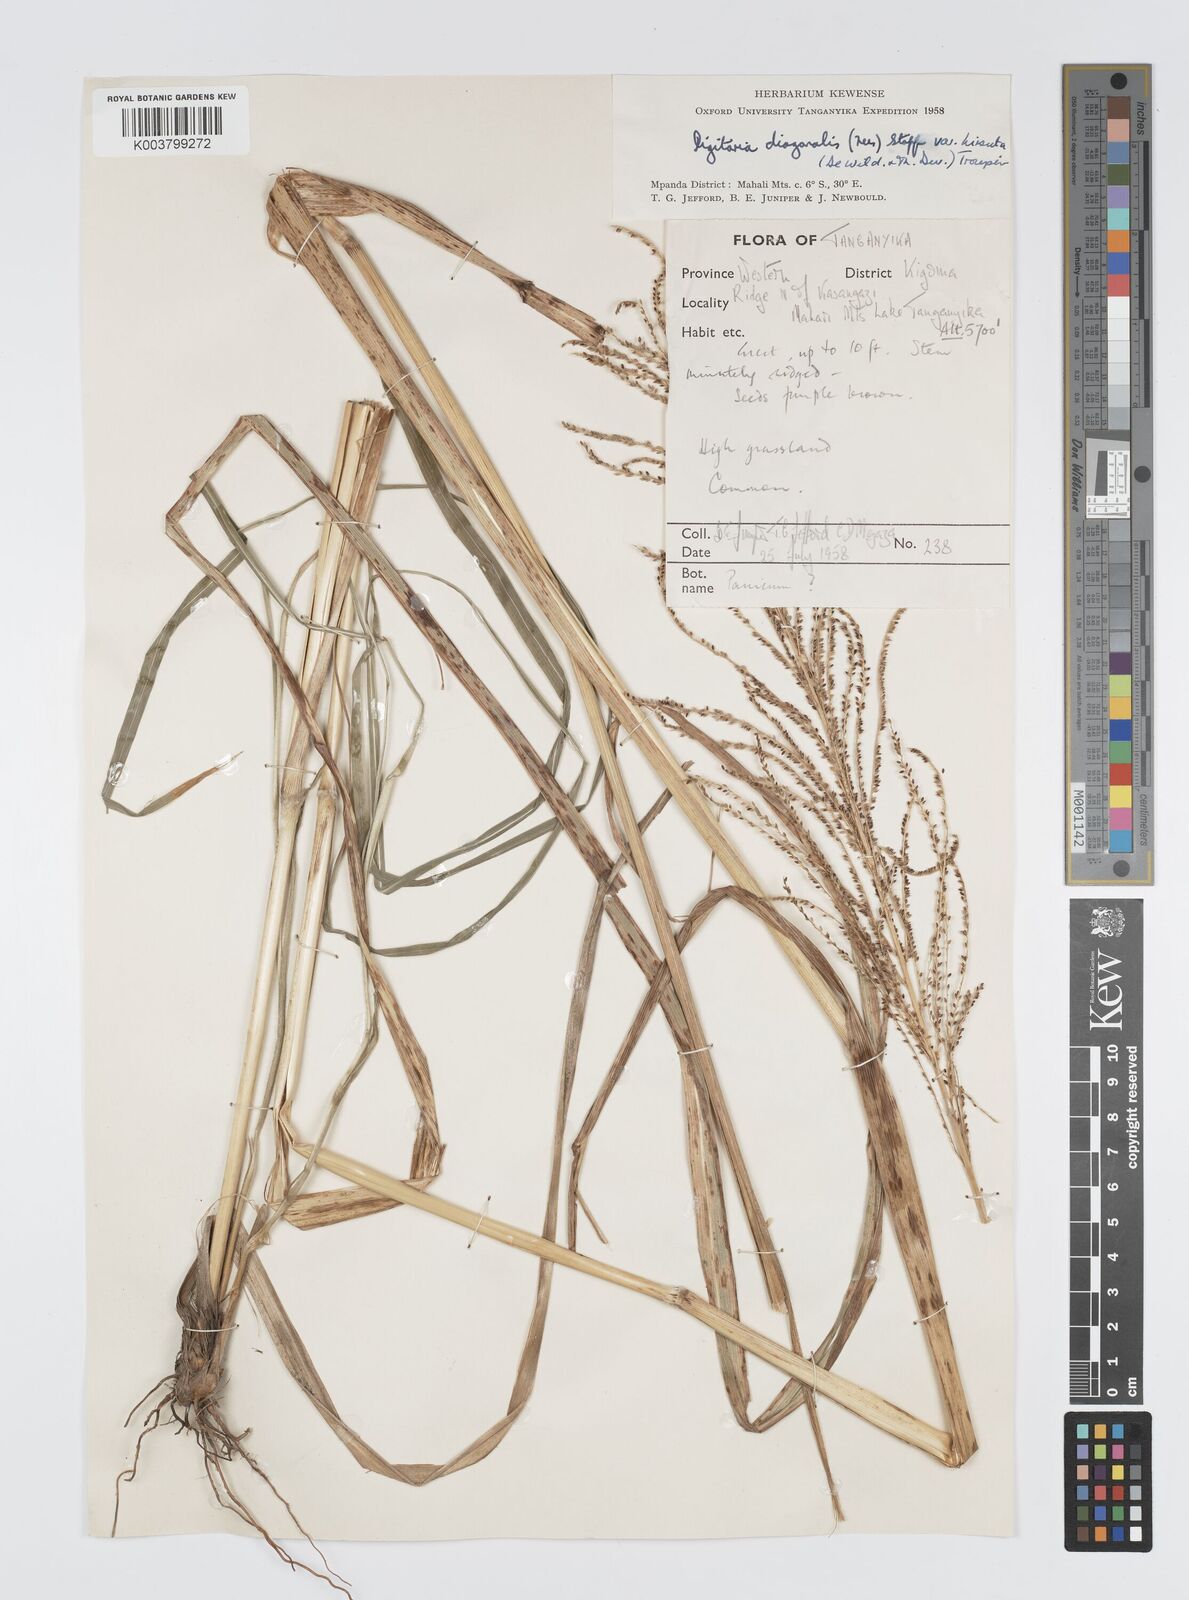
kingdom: Plantae
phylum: Tracheophyta
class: Liliopsida
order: Poales
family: Poaceae
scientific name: Poaceae
